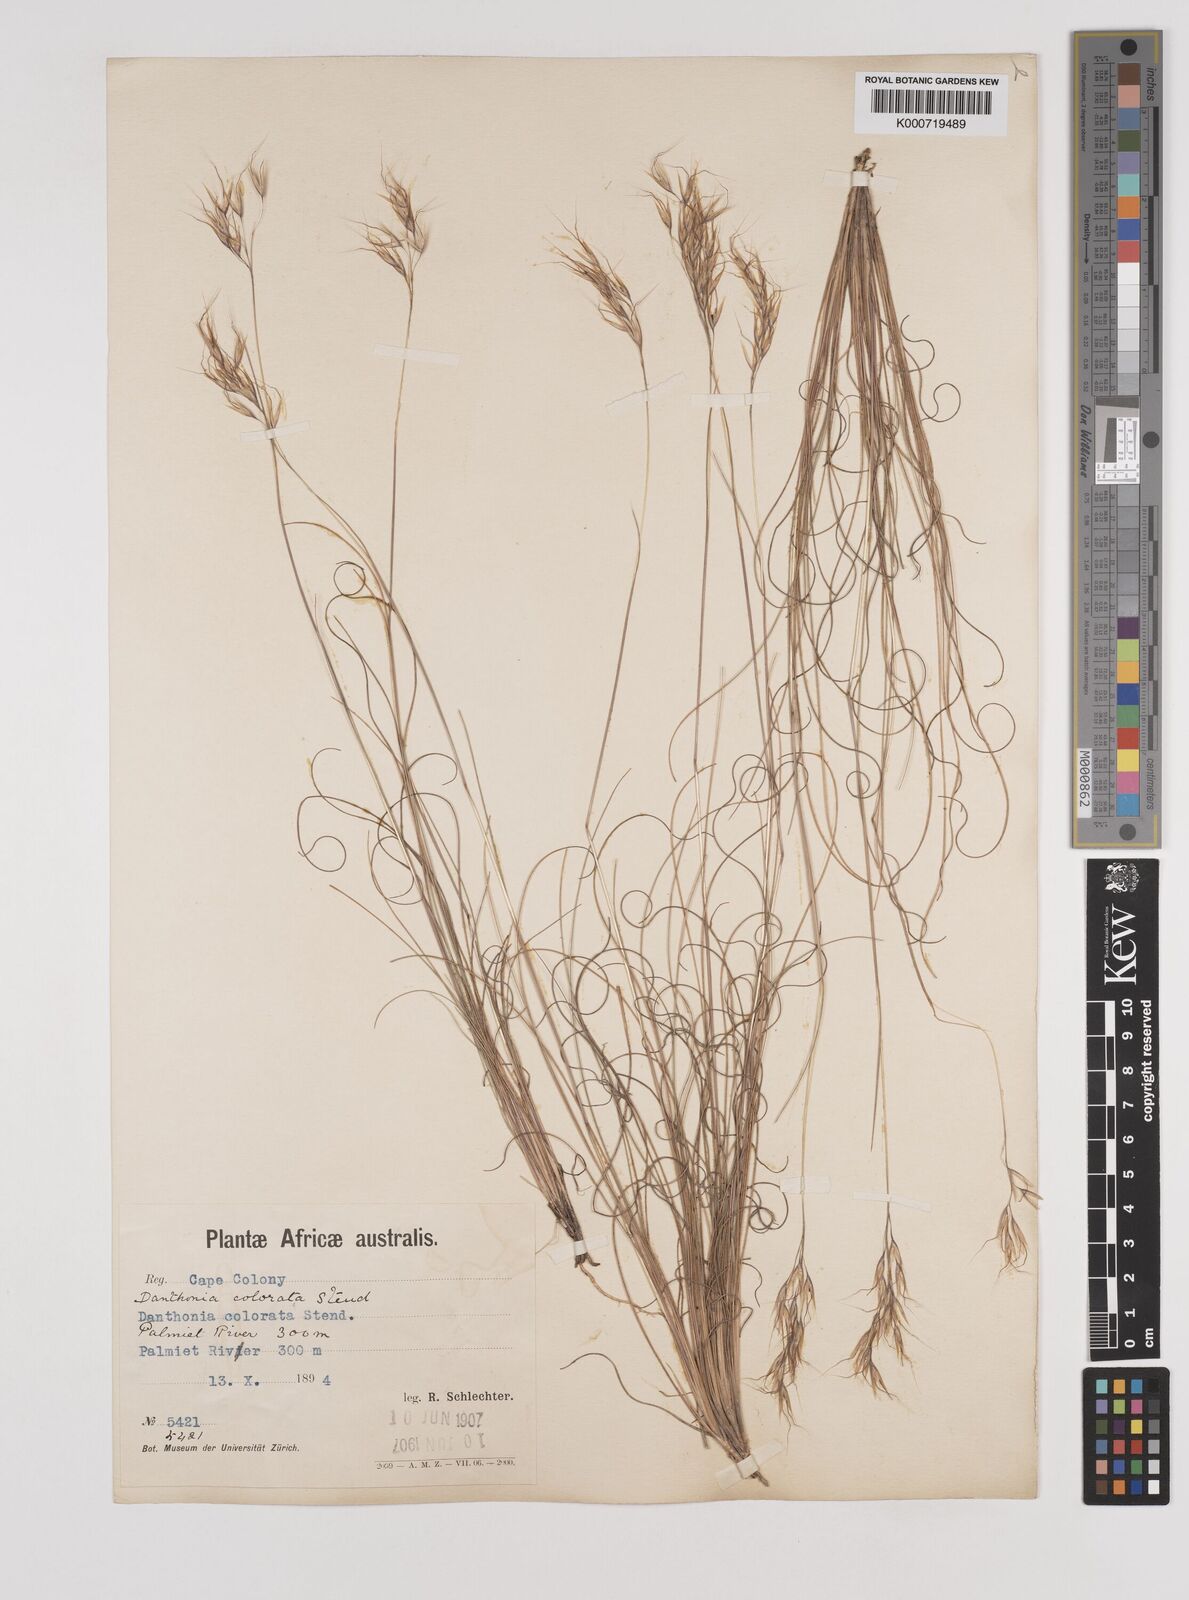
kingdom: Plantae
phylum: Tracheophyta
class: Liliopsida
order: Poales
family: Poaceae
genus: Pentameris
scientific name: Pentameris colorata
